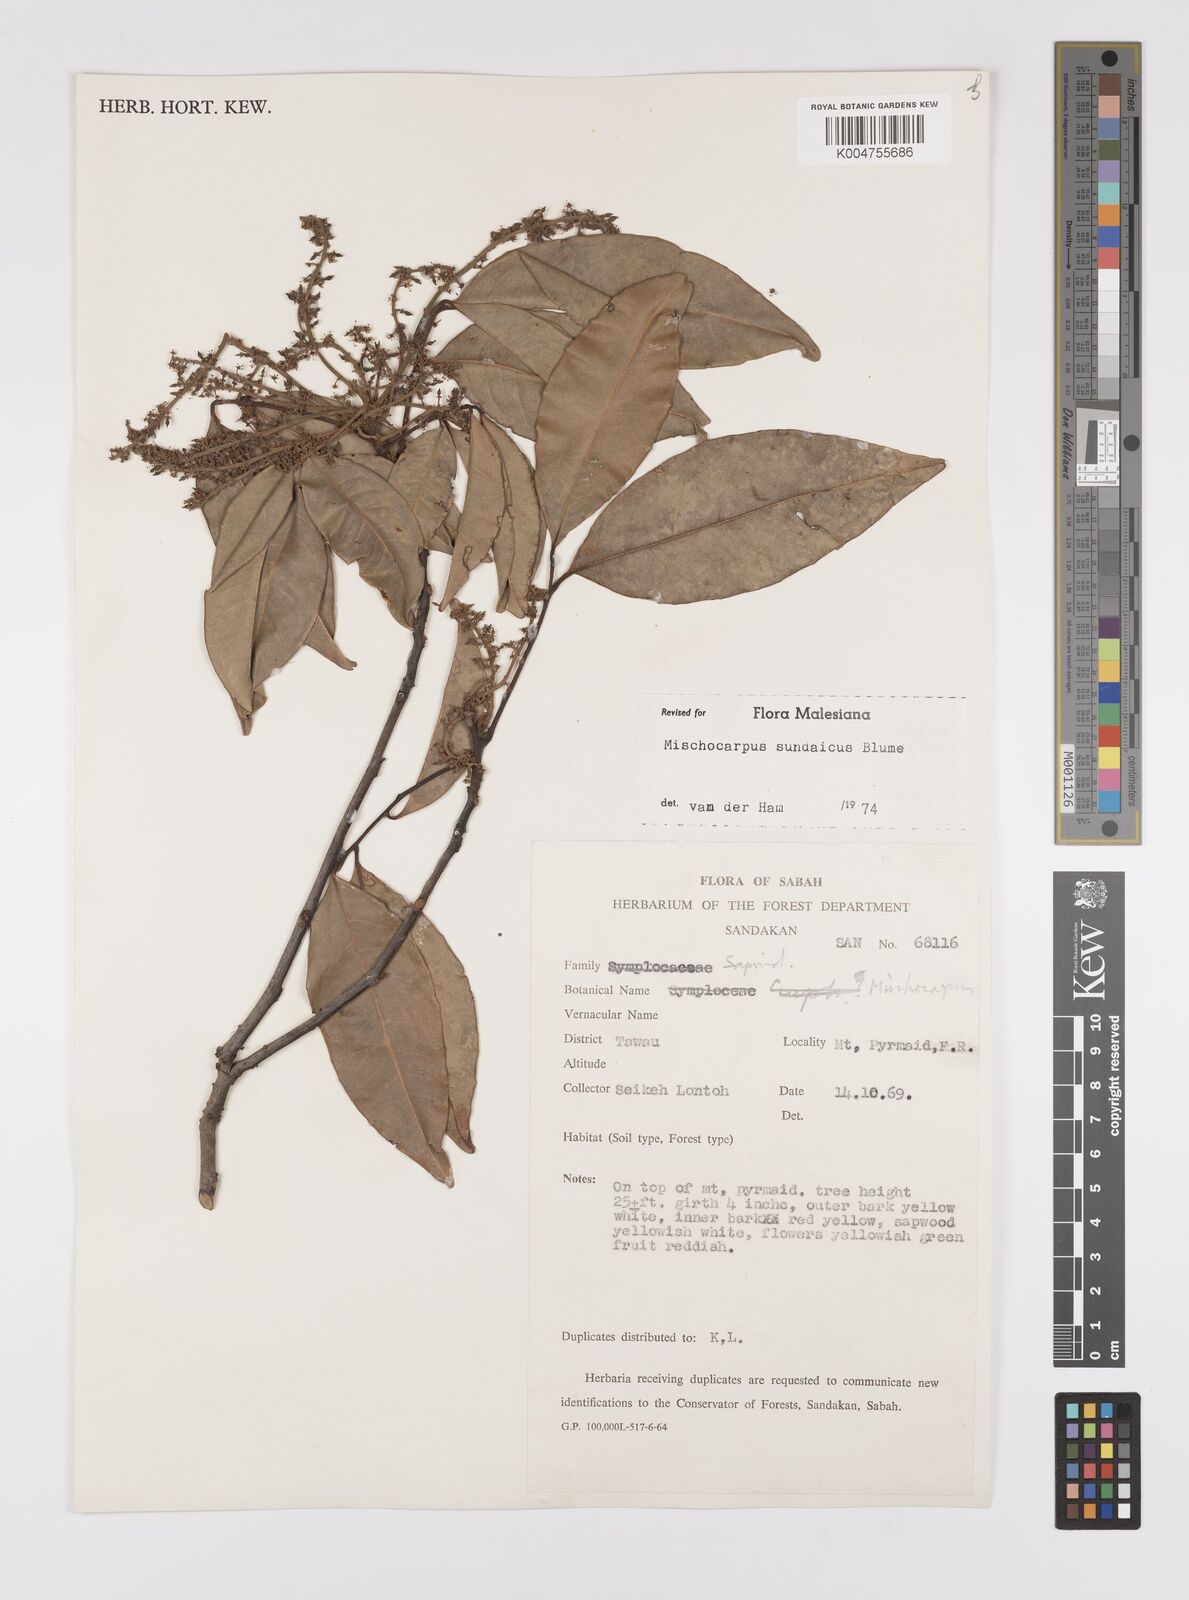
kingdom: Plantae
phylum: Tracheophyta
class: Magnoliopsida
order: Sapindales
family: Sapindaceae
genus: Mischocarpus
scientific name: Mischocarpus sundaicus
